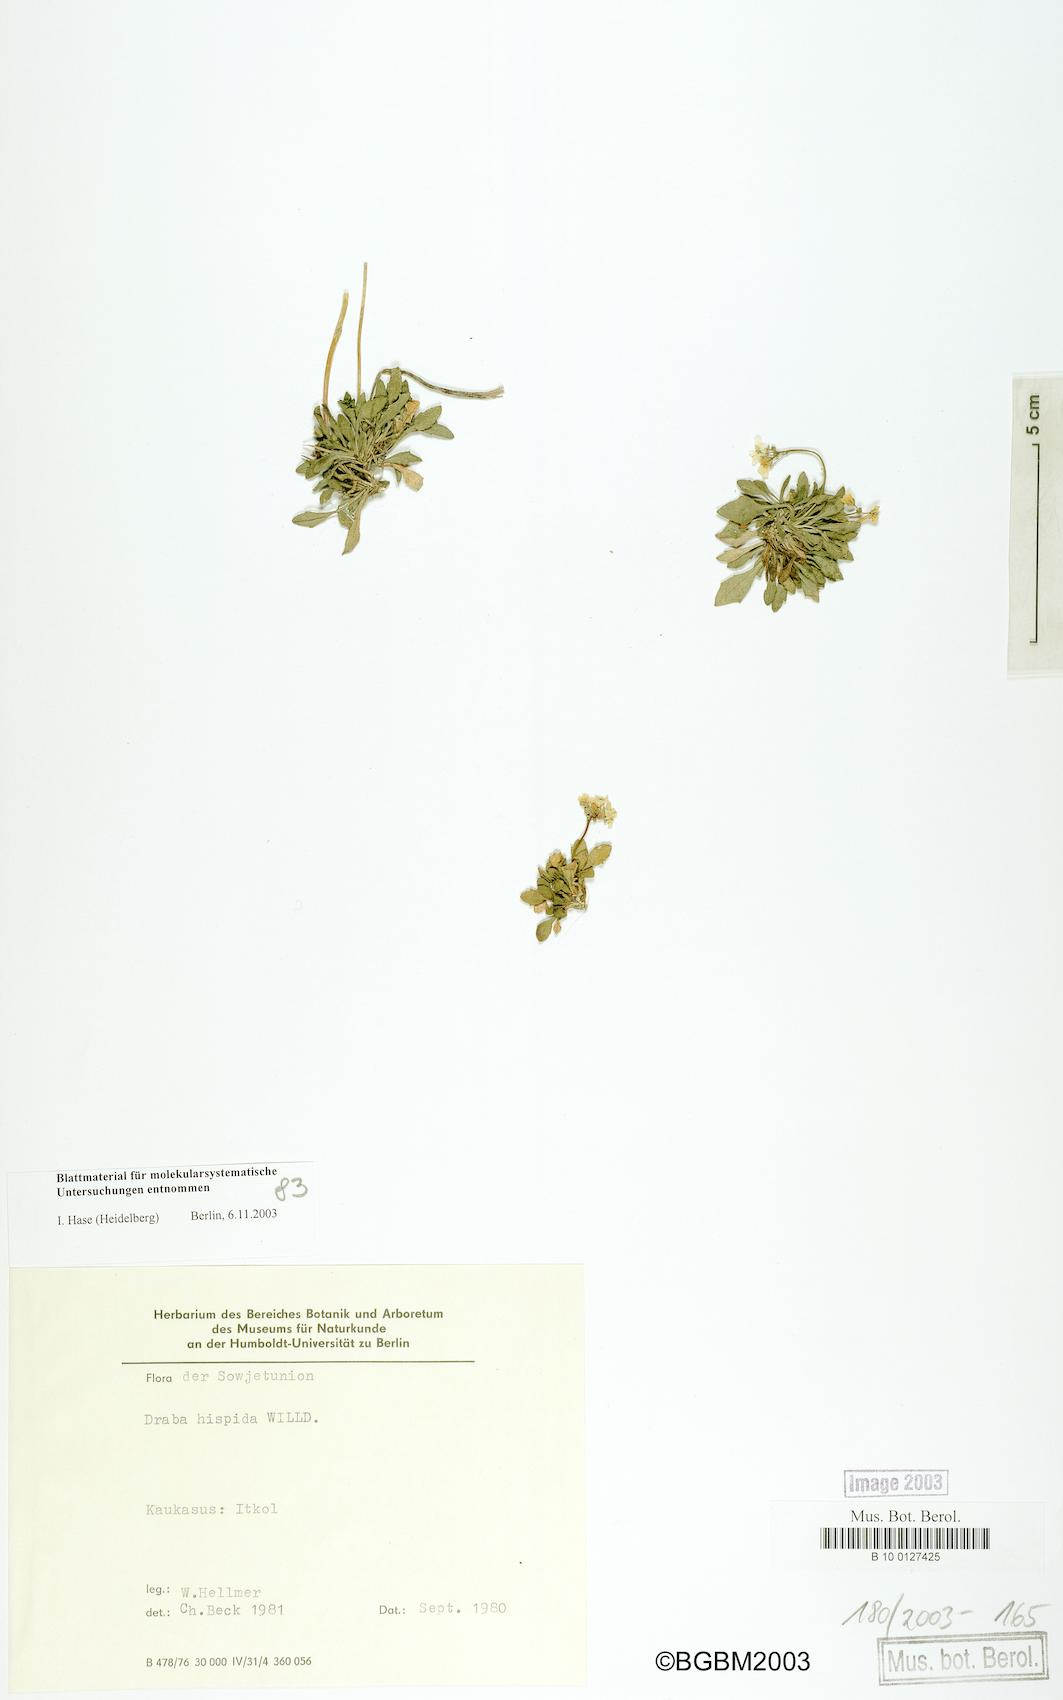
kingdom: Plantae
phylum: Tracheophyta
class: Magnoliopsida
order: Brassicales
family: Brassicaceae
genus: Draba
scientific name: Draba hispida
